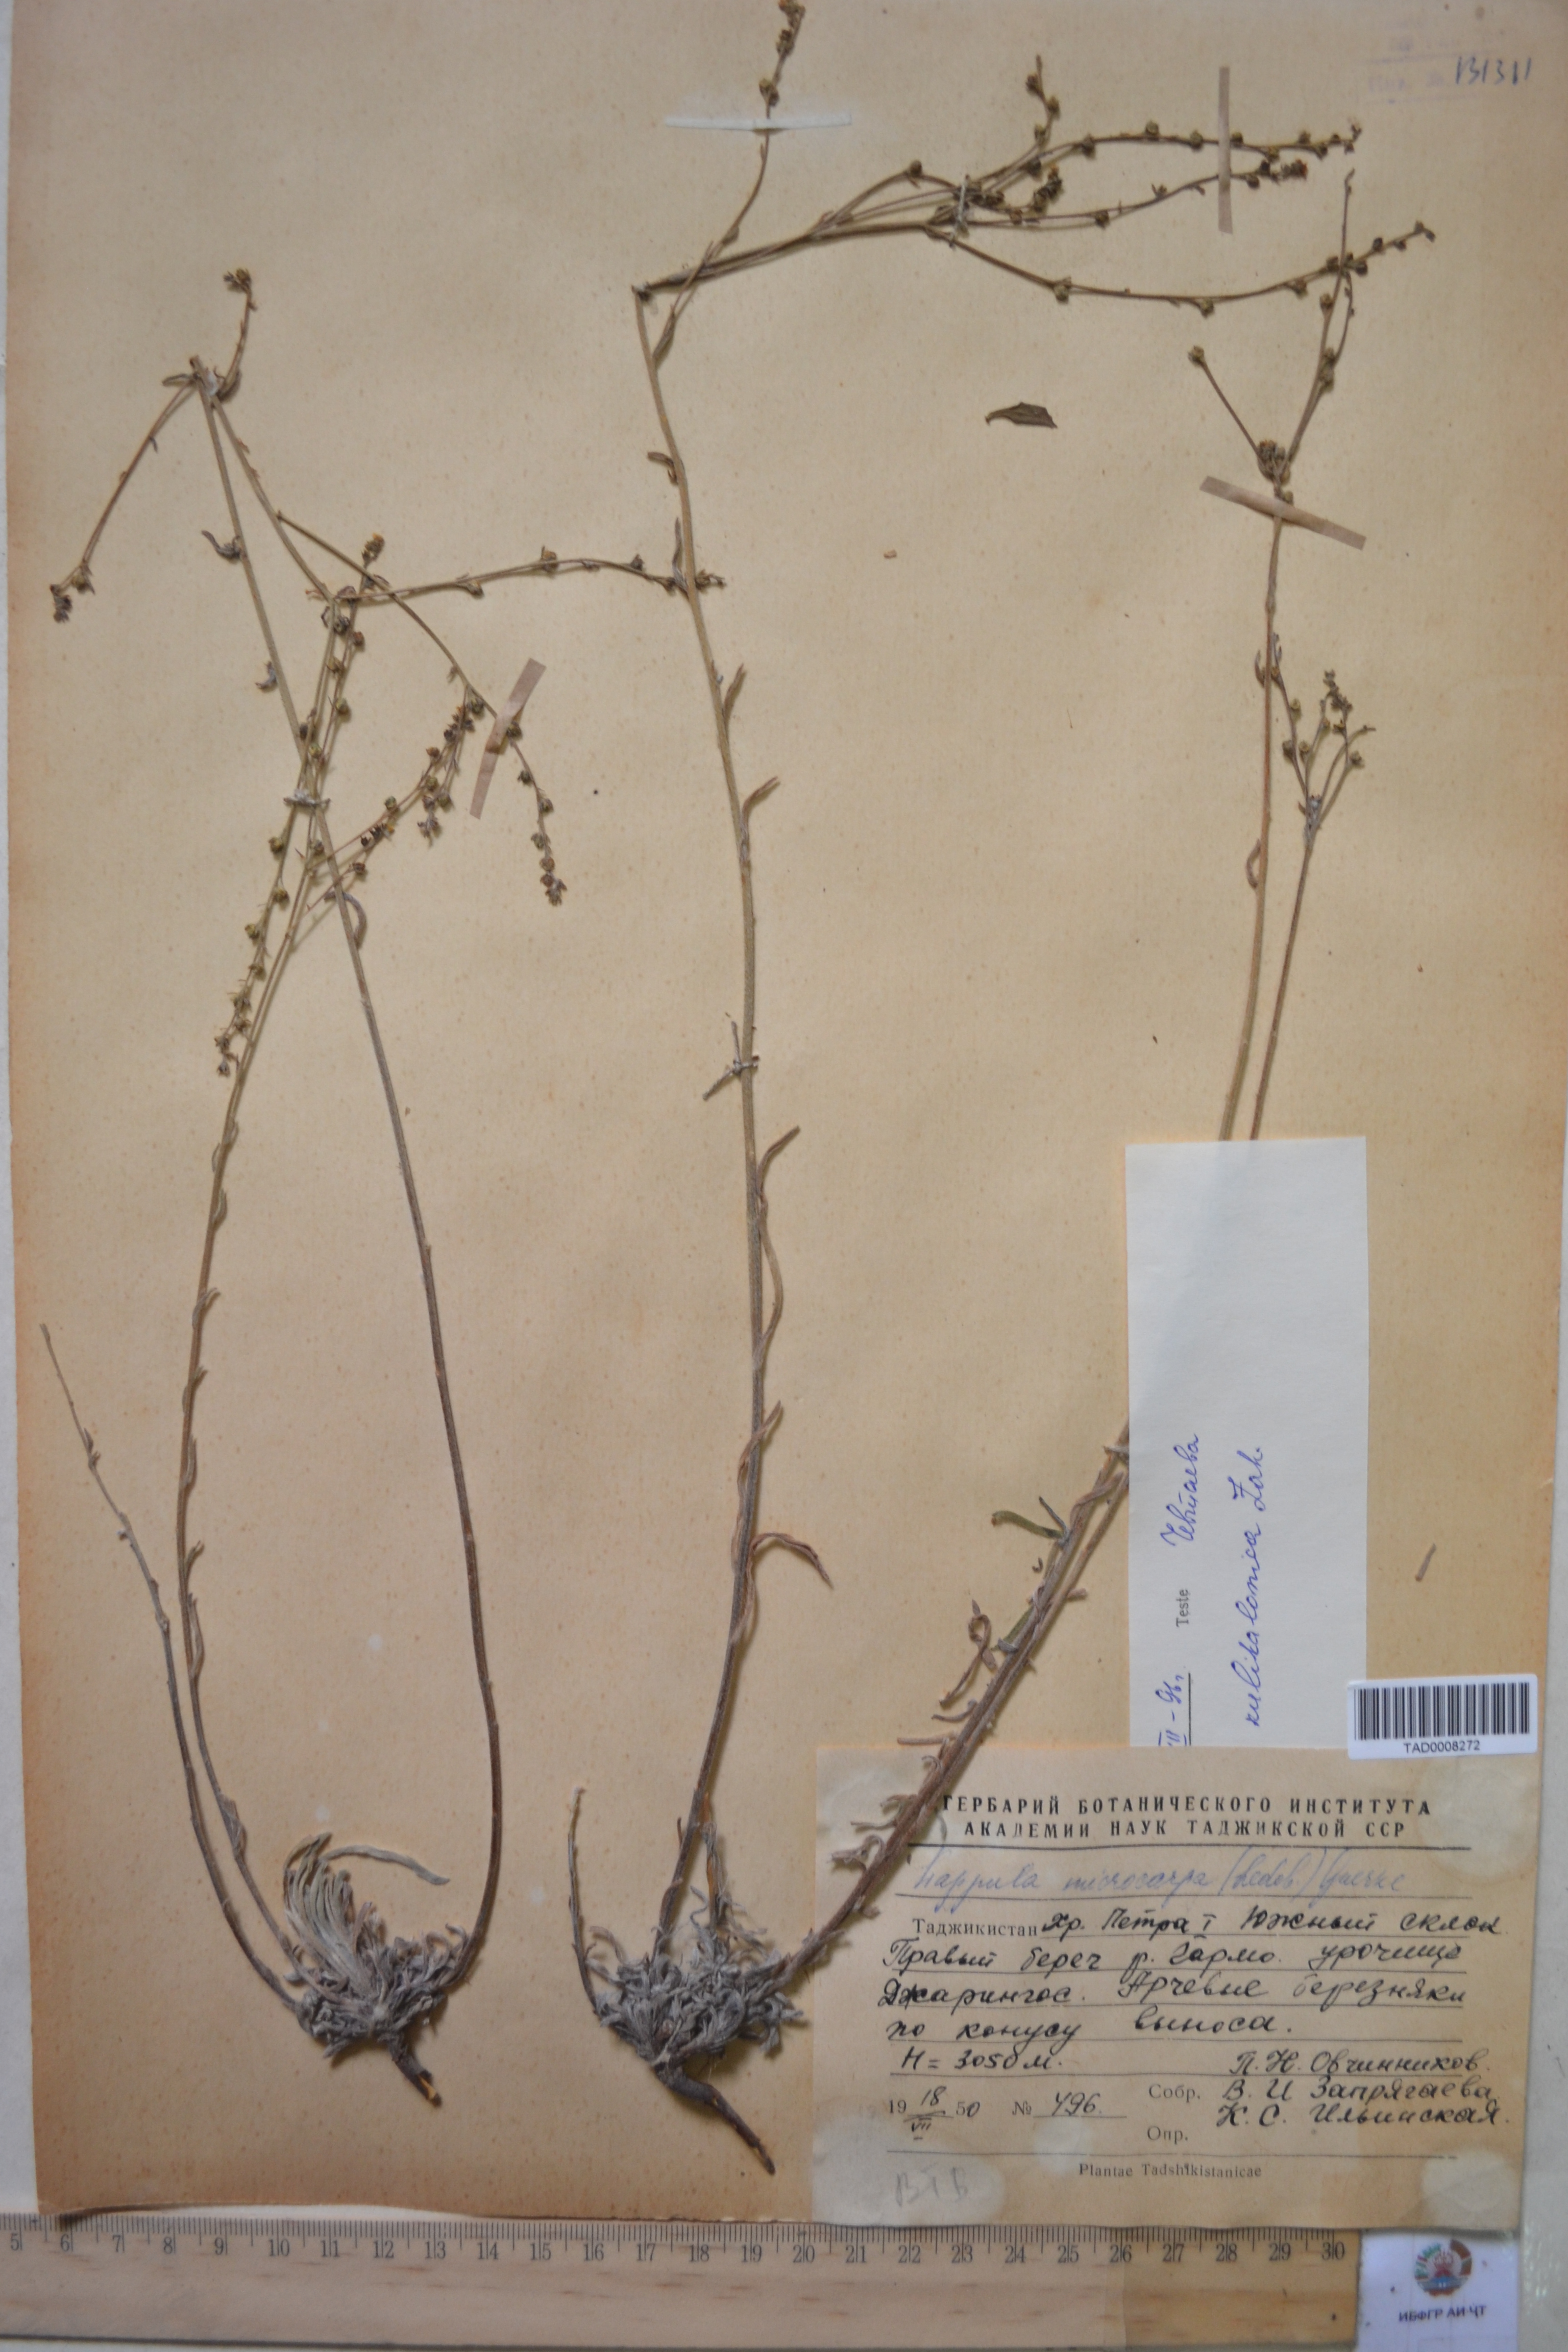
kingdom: Plantae
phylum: Tracheophyta
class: Magnoliopsida
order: Boraginales
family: Boraginaceae
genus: Lappula
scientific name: Lappula microcarpa
